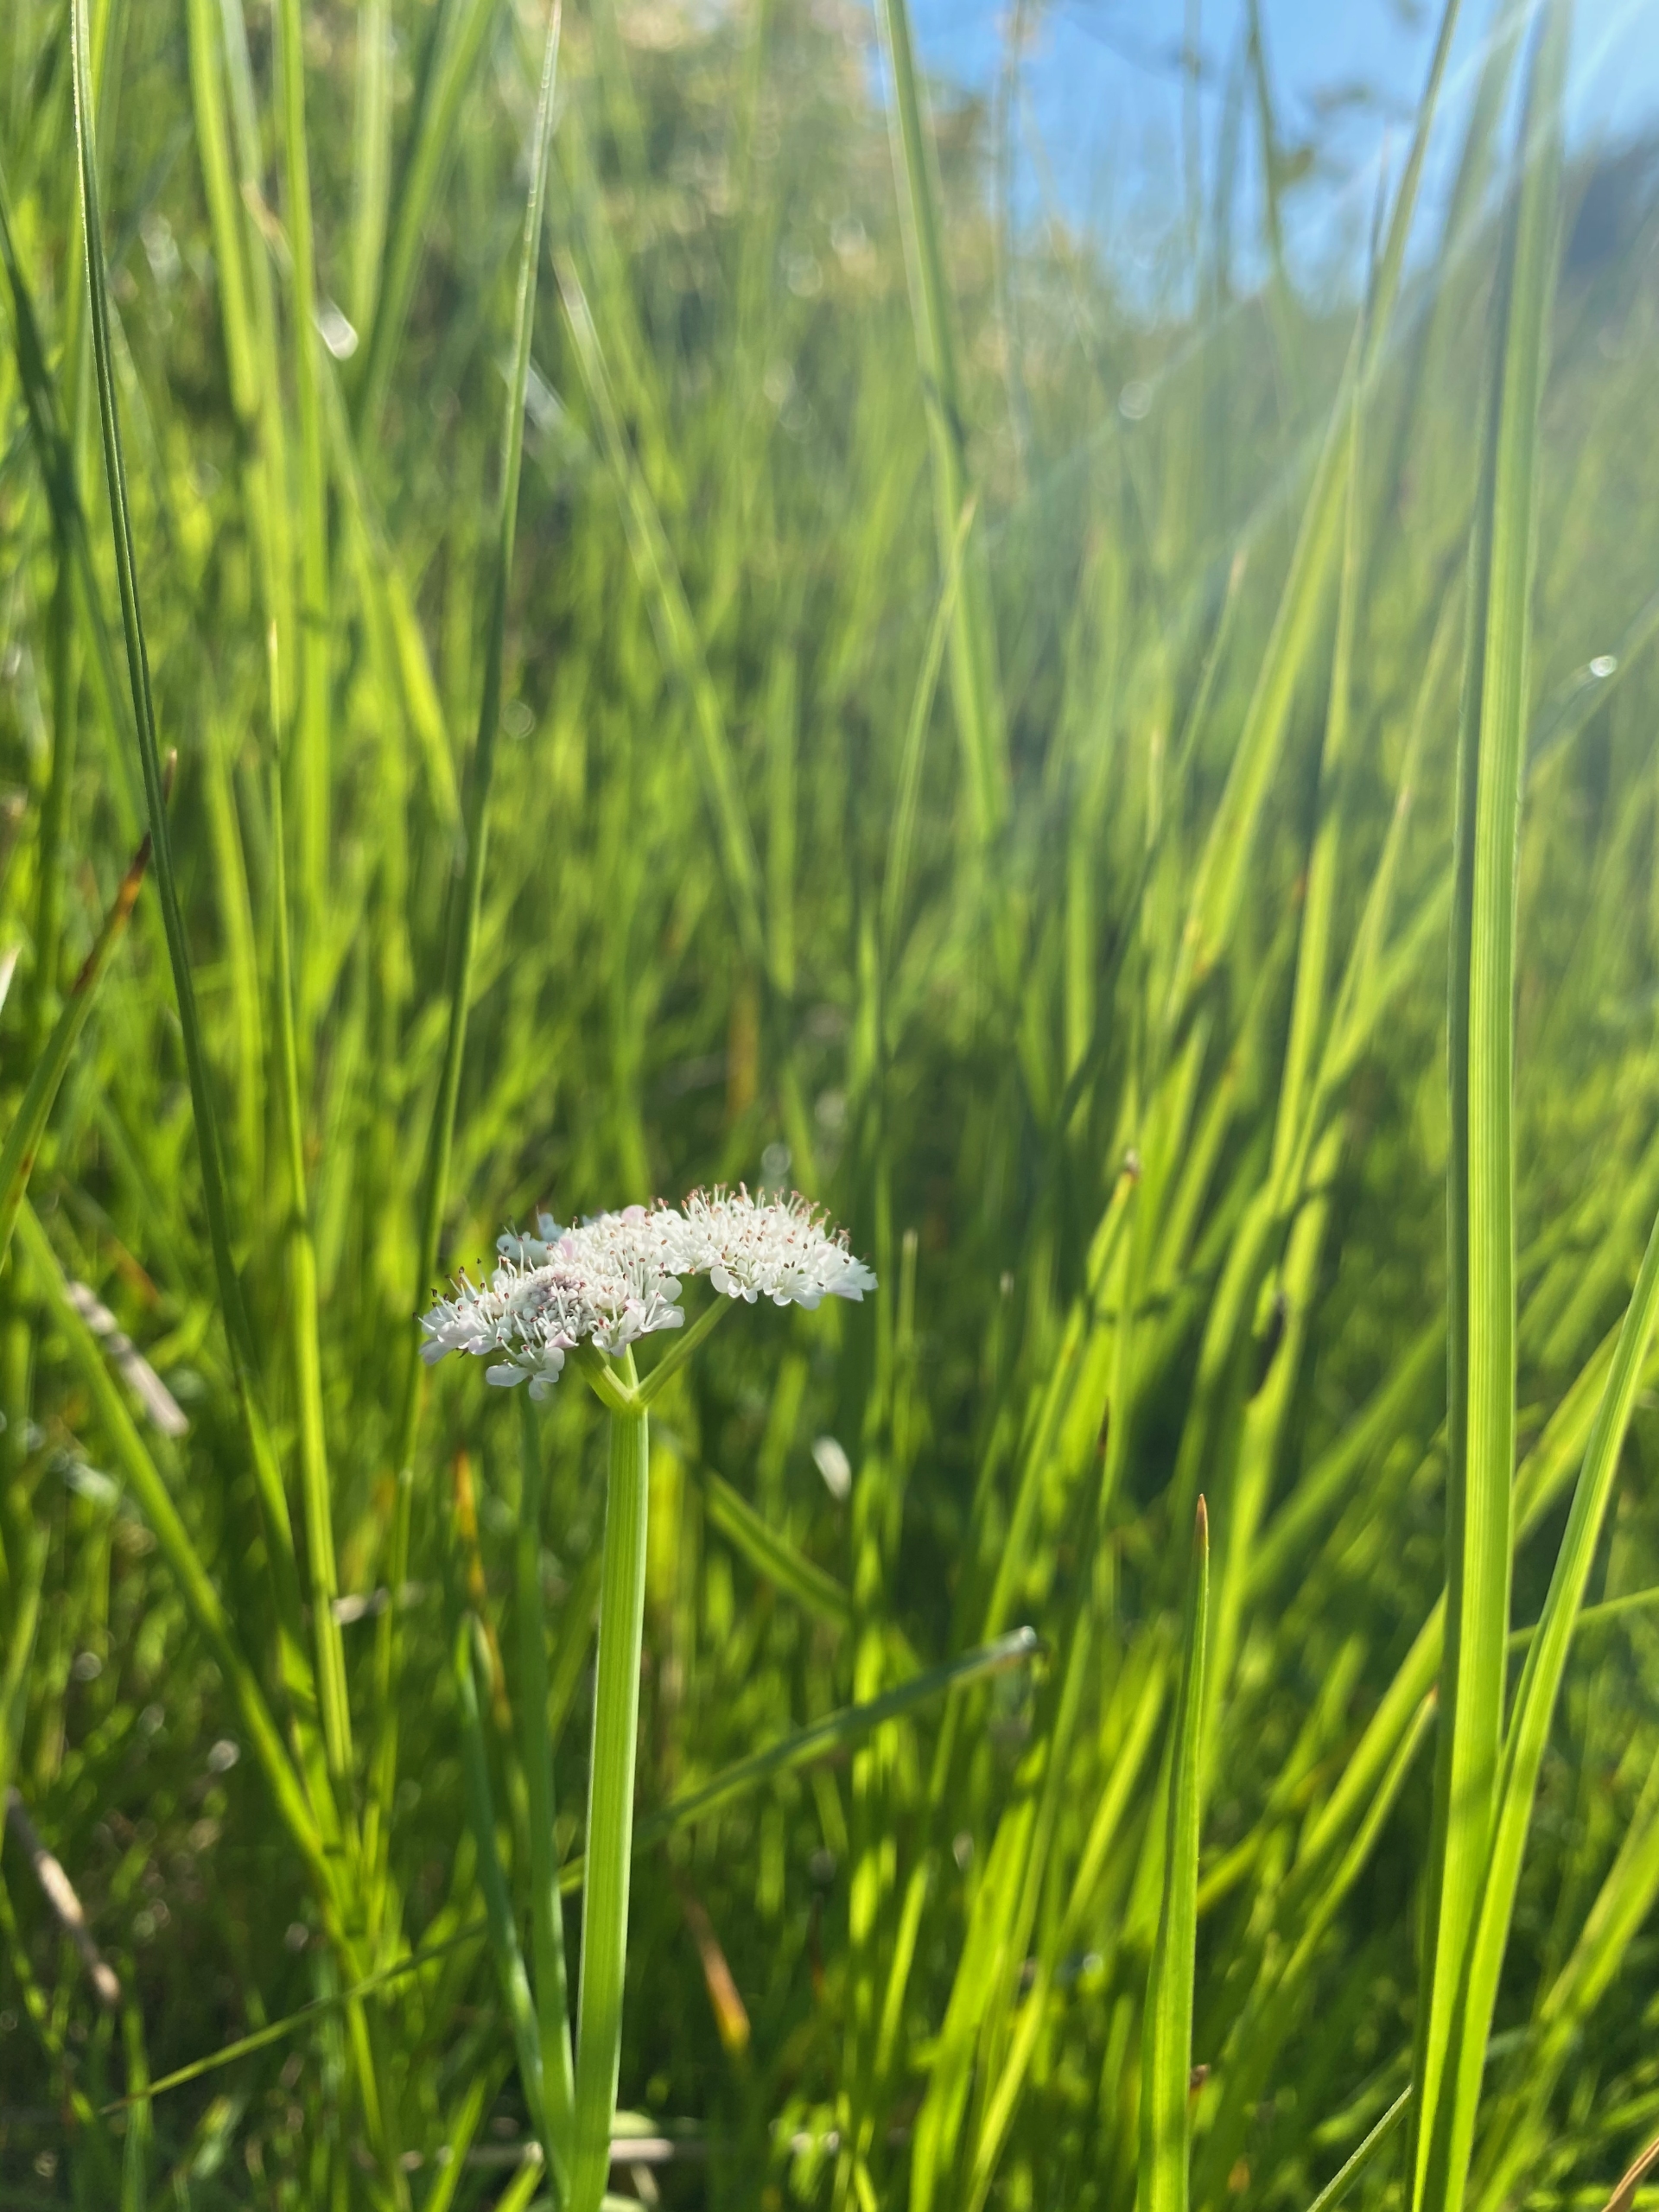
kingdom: Plantae
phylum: Tracheophyta
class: Magnoliopsida
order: Apiales
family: Apiaceae
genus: Oenanthe
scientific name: Oenanthe fistulosa
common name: Vand-klaseskærm
